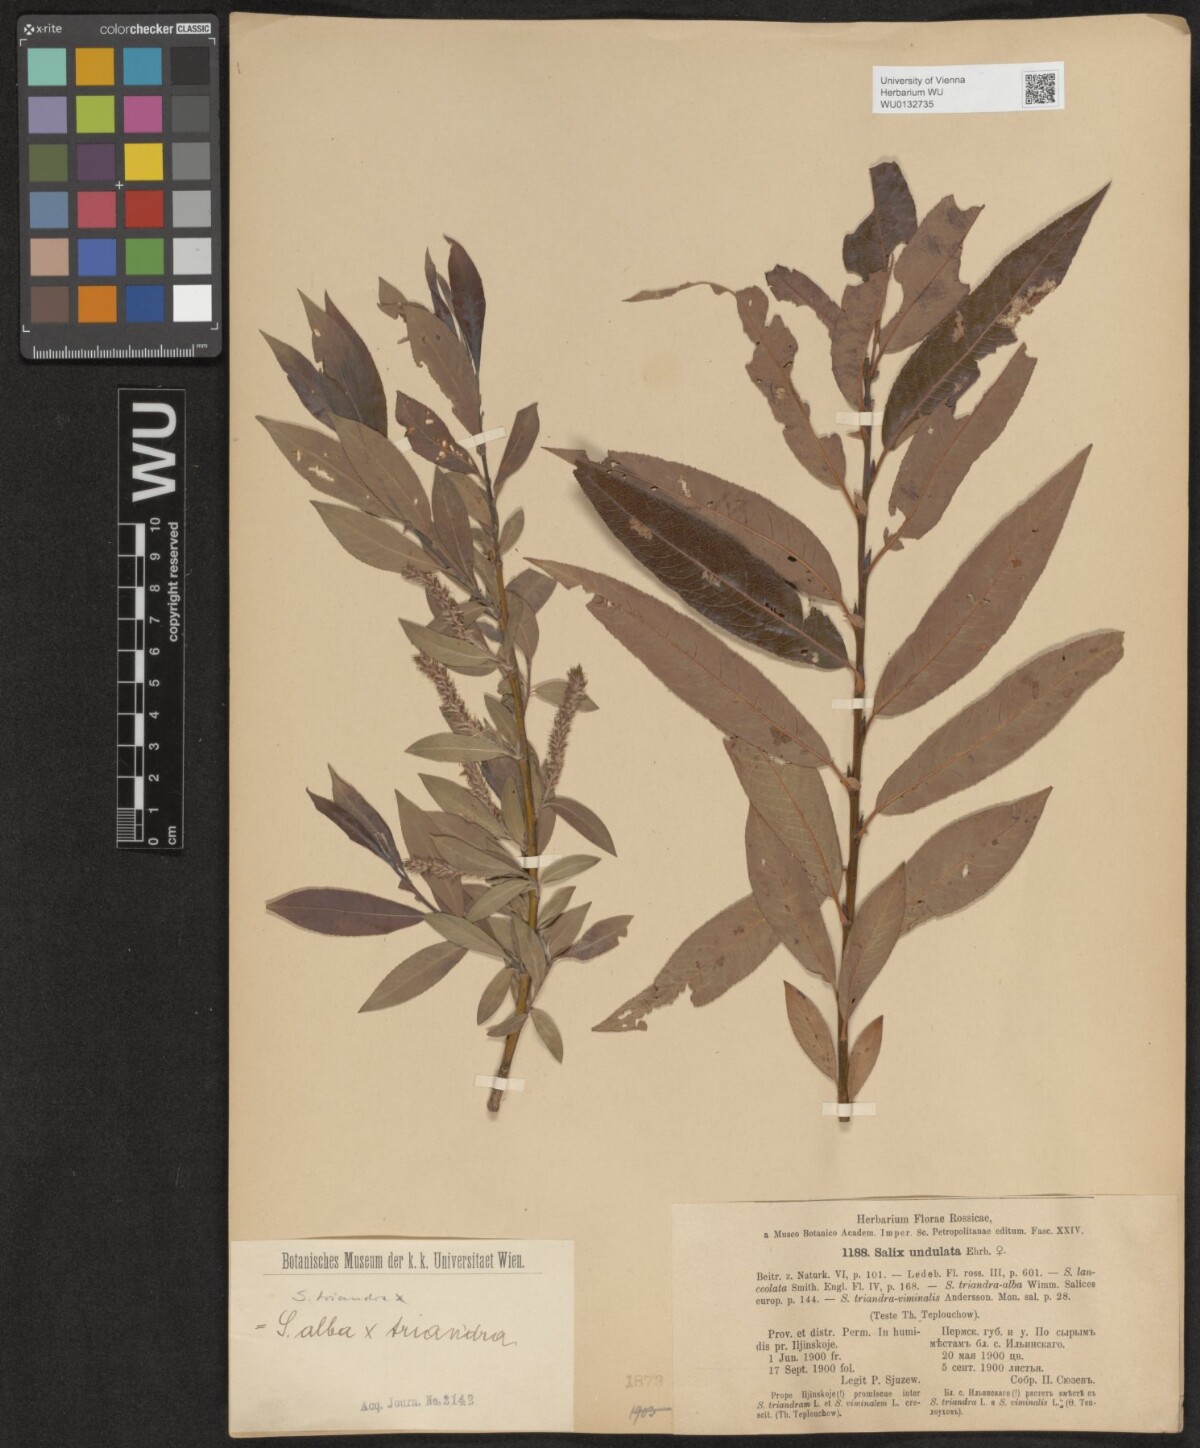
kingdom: Plantae
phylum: Tracheophyta
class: Magnoliopsida
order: Malpighiales
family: Salicaceae
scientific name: Salicaceae
